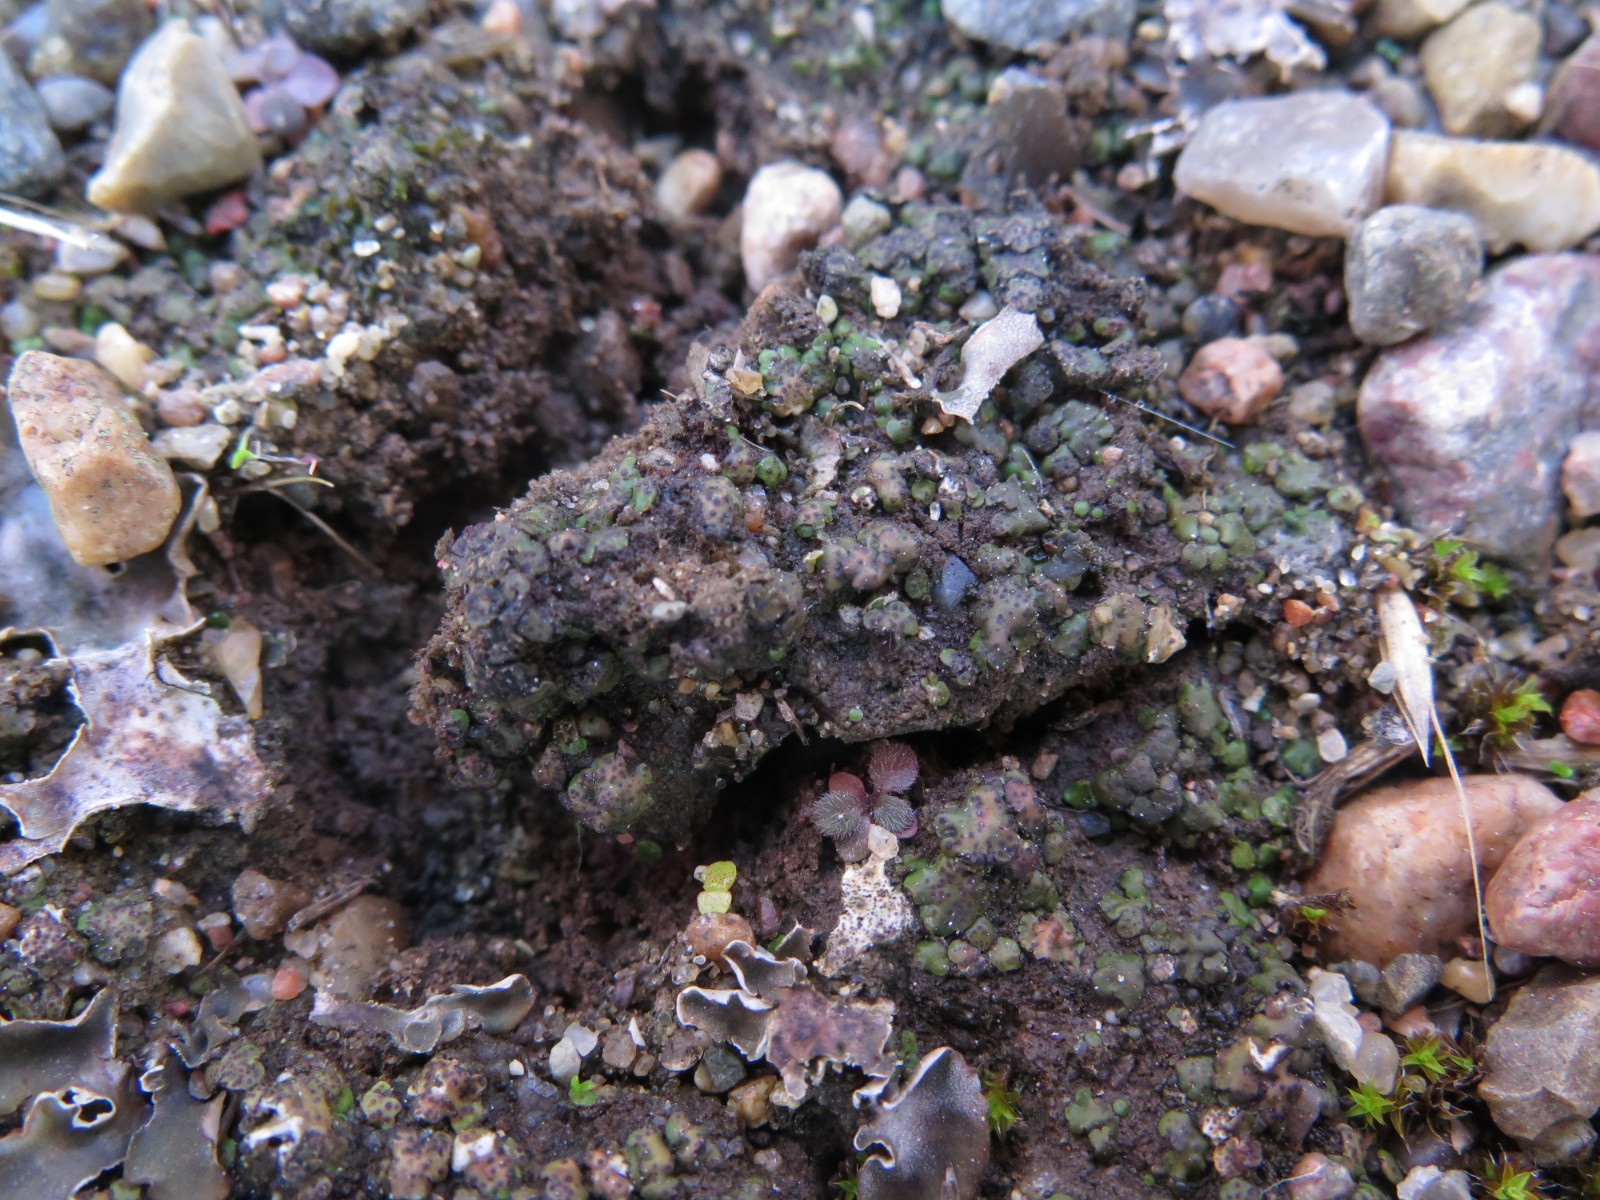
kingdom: Fungi
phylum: Ascomycota
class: Eurotiomycetes
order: Verrucariales
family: Verrucariaceae
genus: Catapyrenium
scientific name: Catapyrenium michelii
